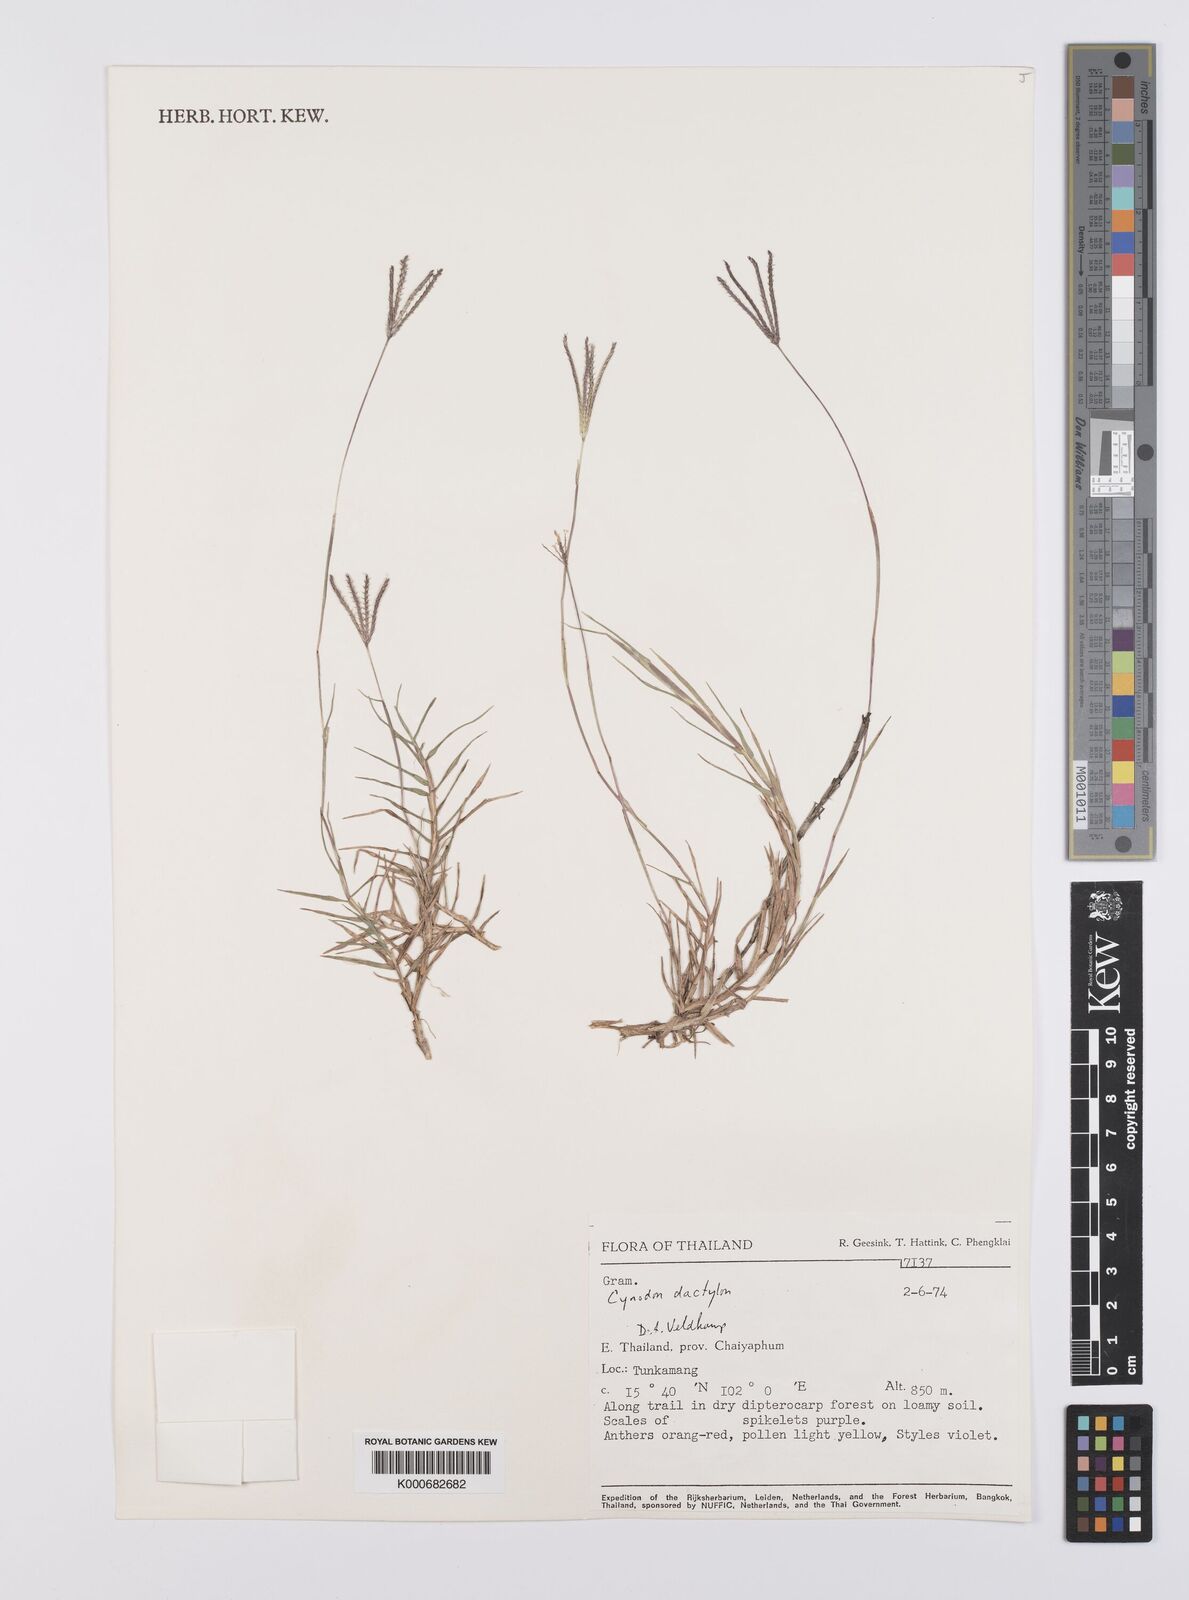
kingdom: Plantae
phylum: Tracheophyta
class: Liliopsida
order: Poales
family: Poaceae
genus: Cynodon
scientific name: Cynodon dactylon
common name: Bermuda grass
